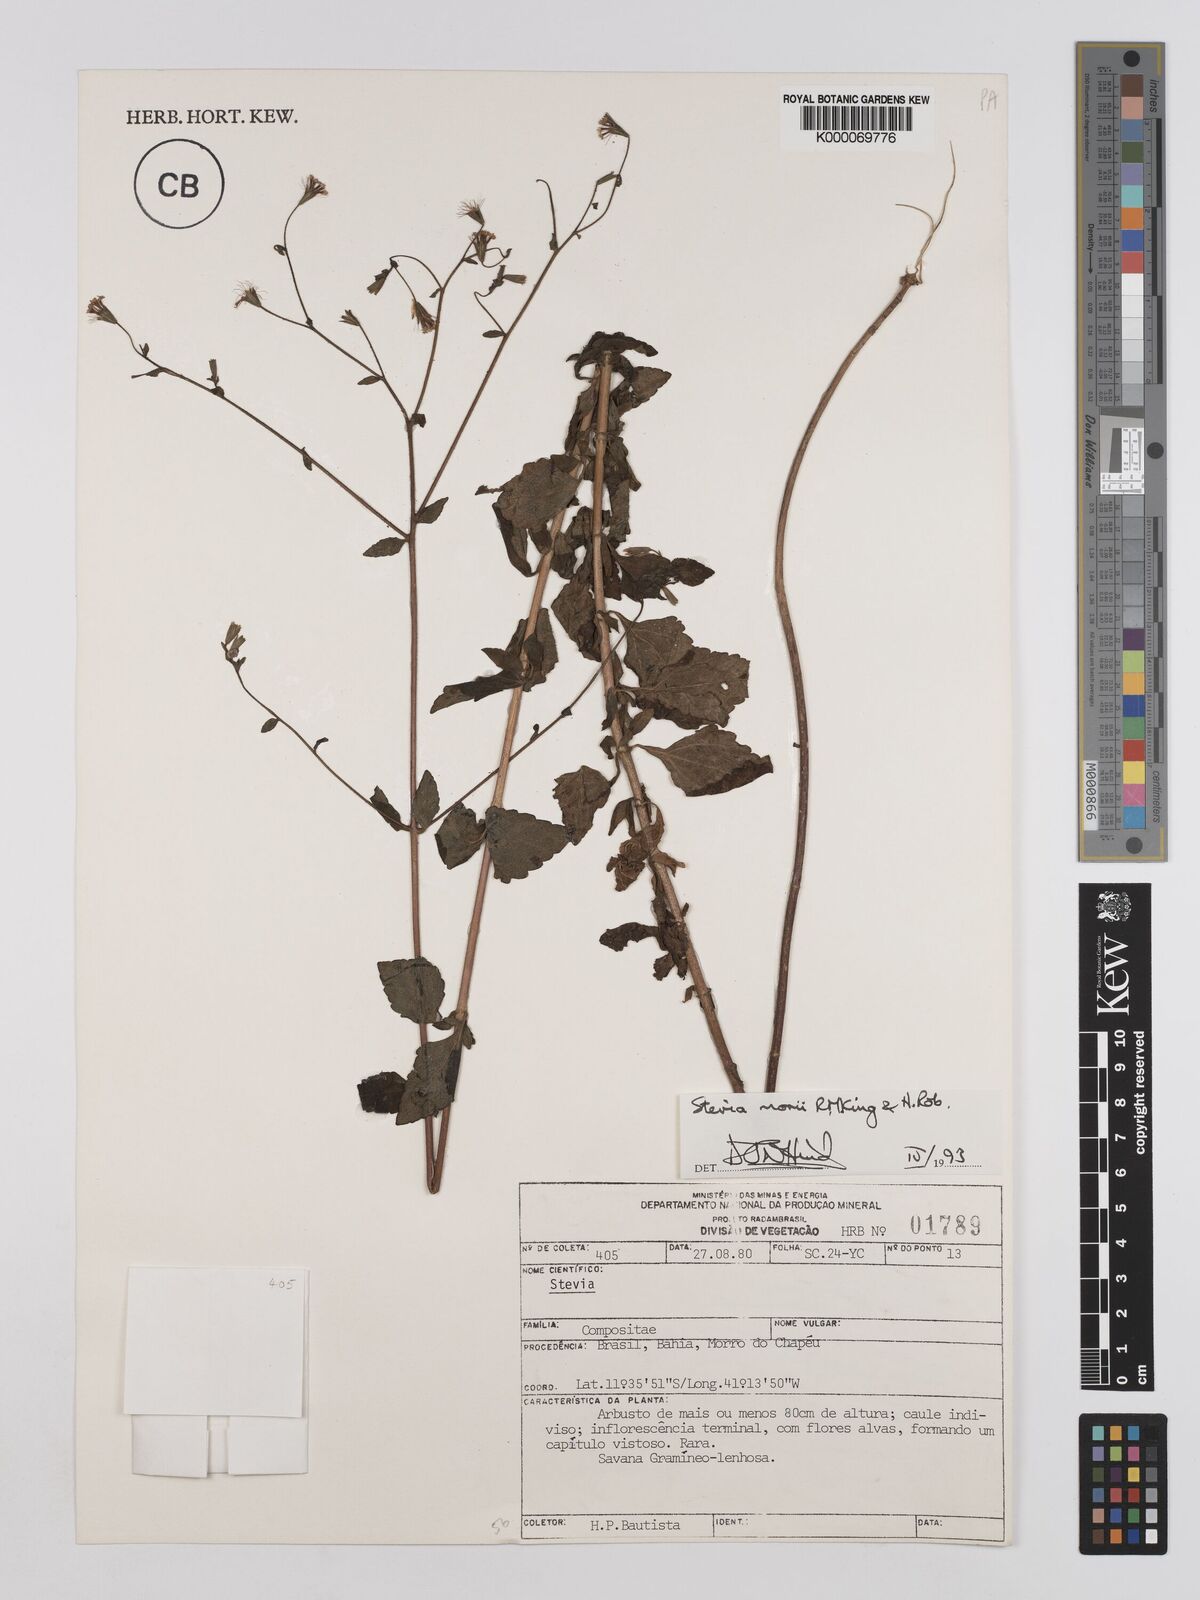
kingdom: Plantae
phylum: Tracheophyta
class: Magnoliopsida
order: Asterales
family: Asteraceae
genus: Stevia
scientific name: Stevia morii
